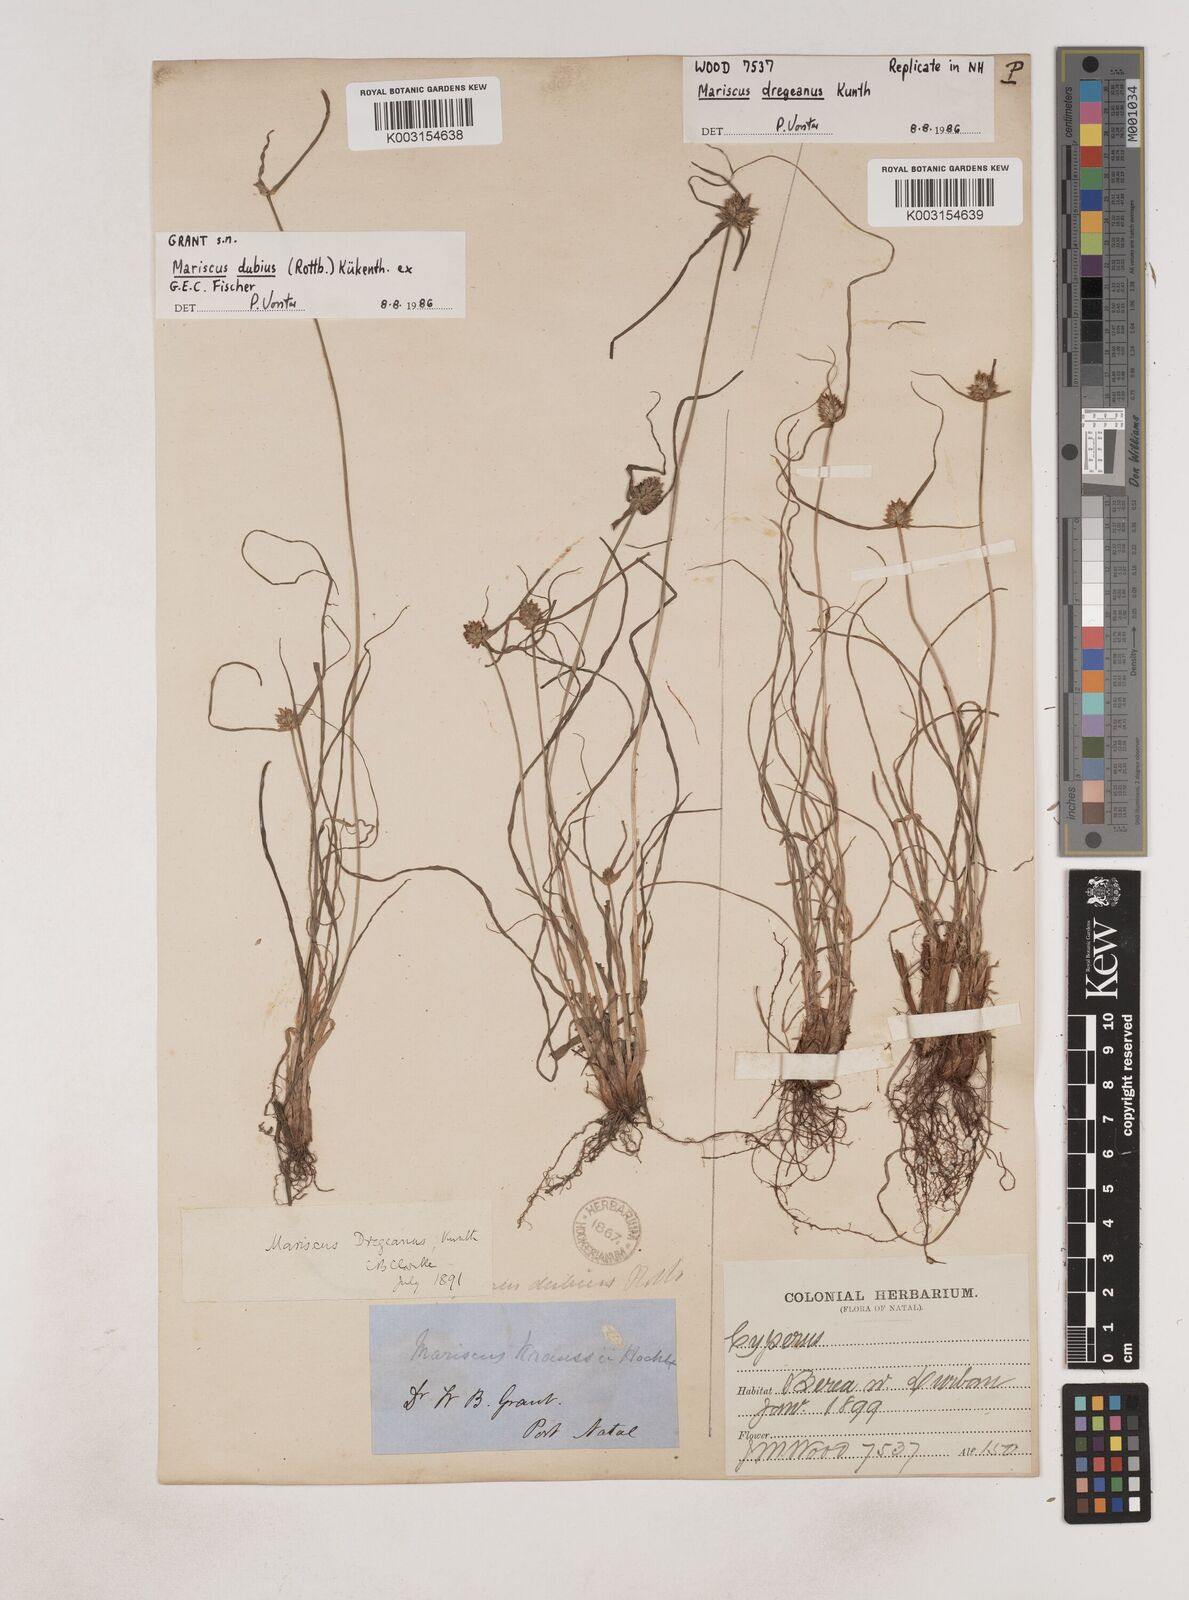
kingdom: Plantae
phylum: Tracheophyta
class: Liliopsida
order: Poales
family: Cyperaceae
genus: Cyperus
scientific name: Cyperus dubius
